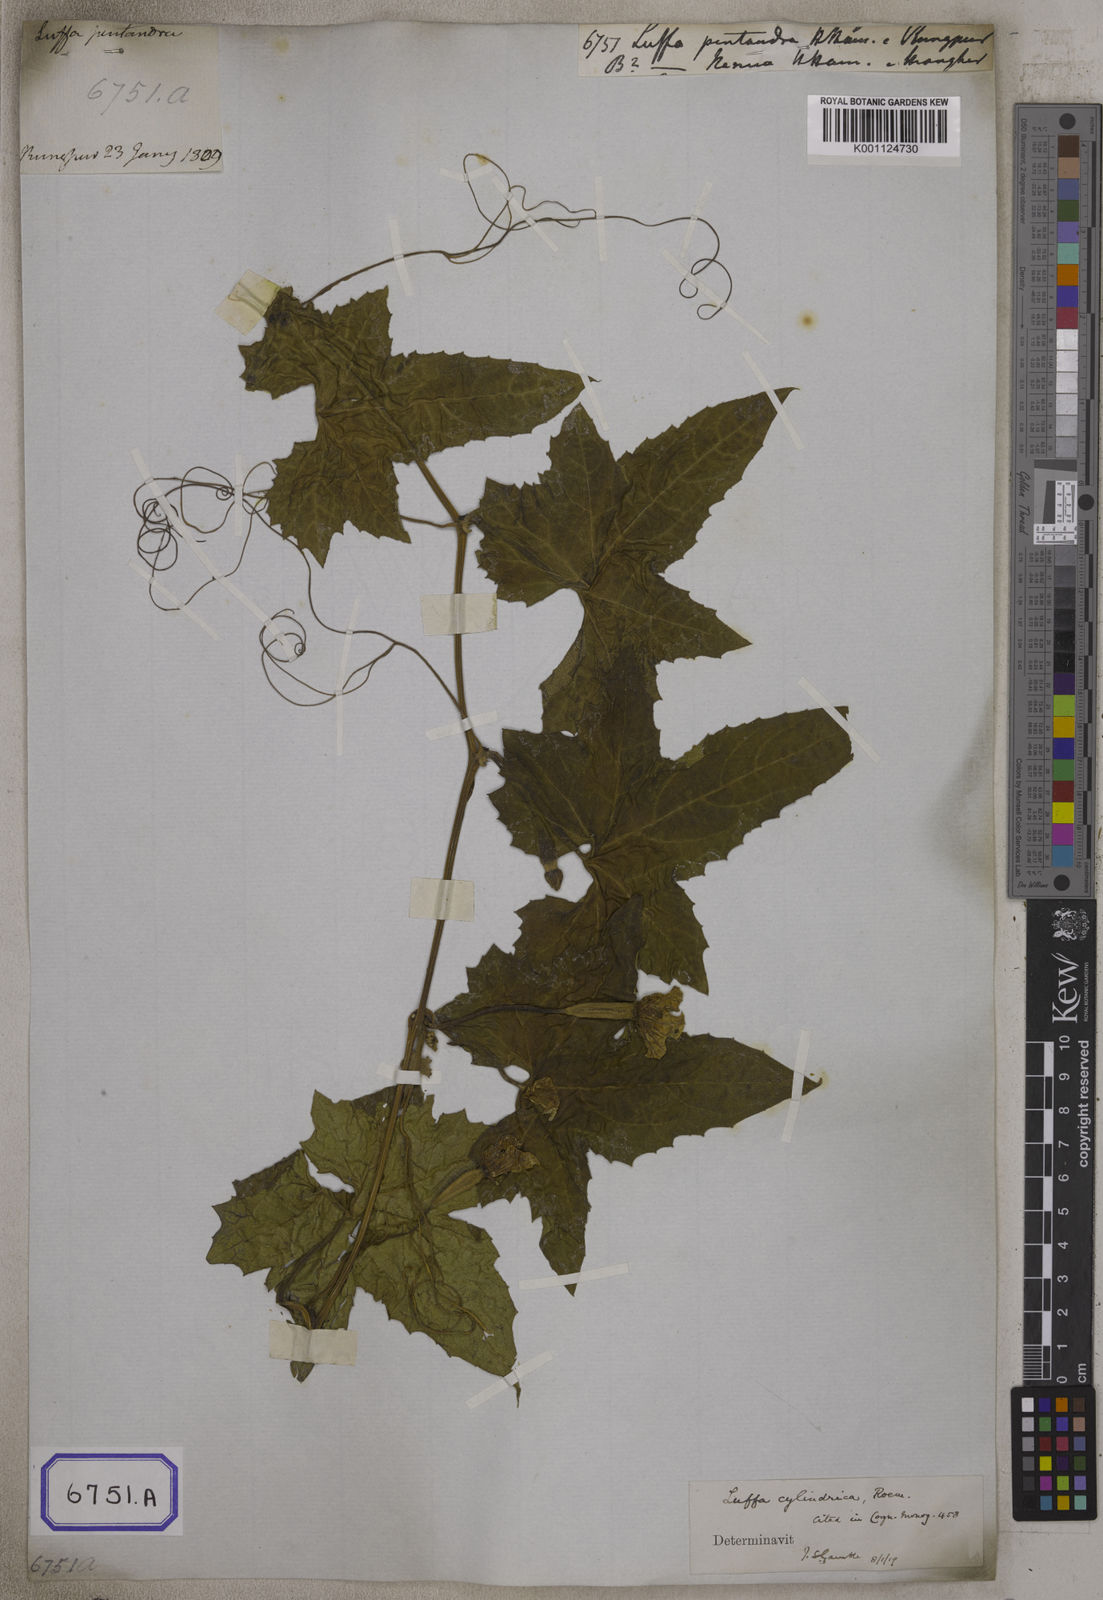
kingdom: Plantae
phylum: Tracheophyta
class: Magnoliopsida
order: Cucurbitales
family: Cucurbitaceae
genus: Luffa
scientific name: Luffa aegyptiaca
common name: Sponge gourd
